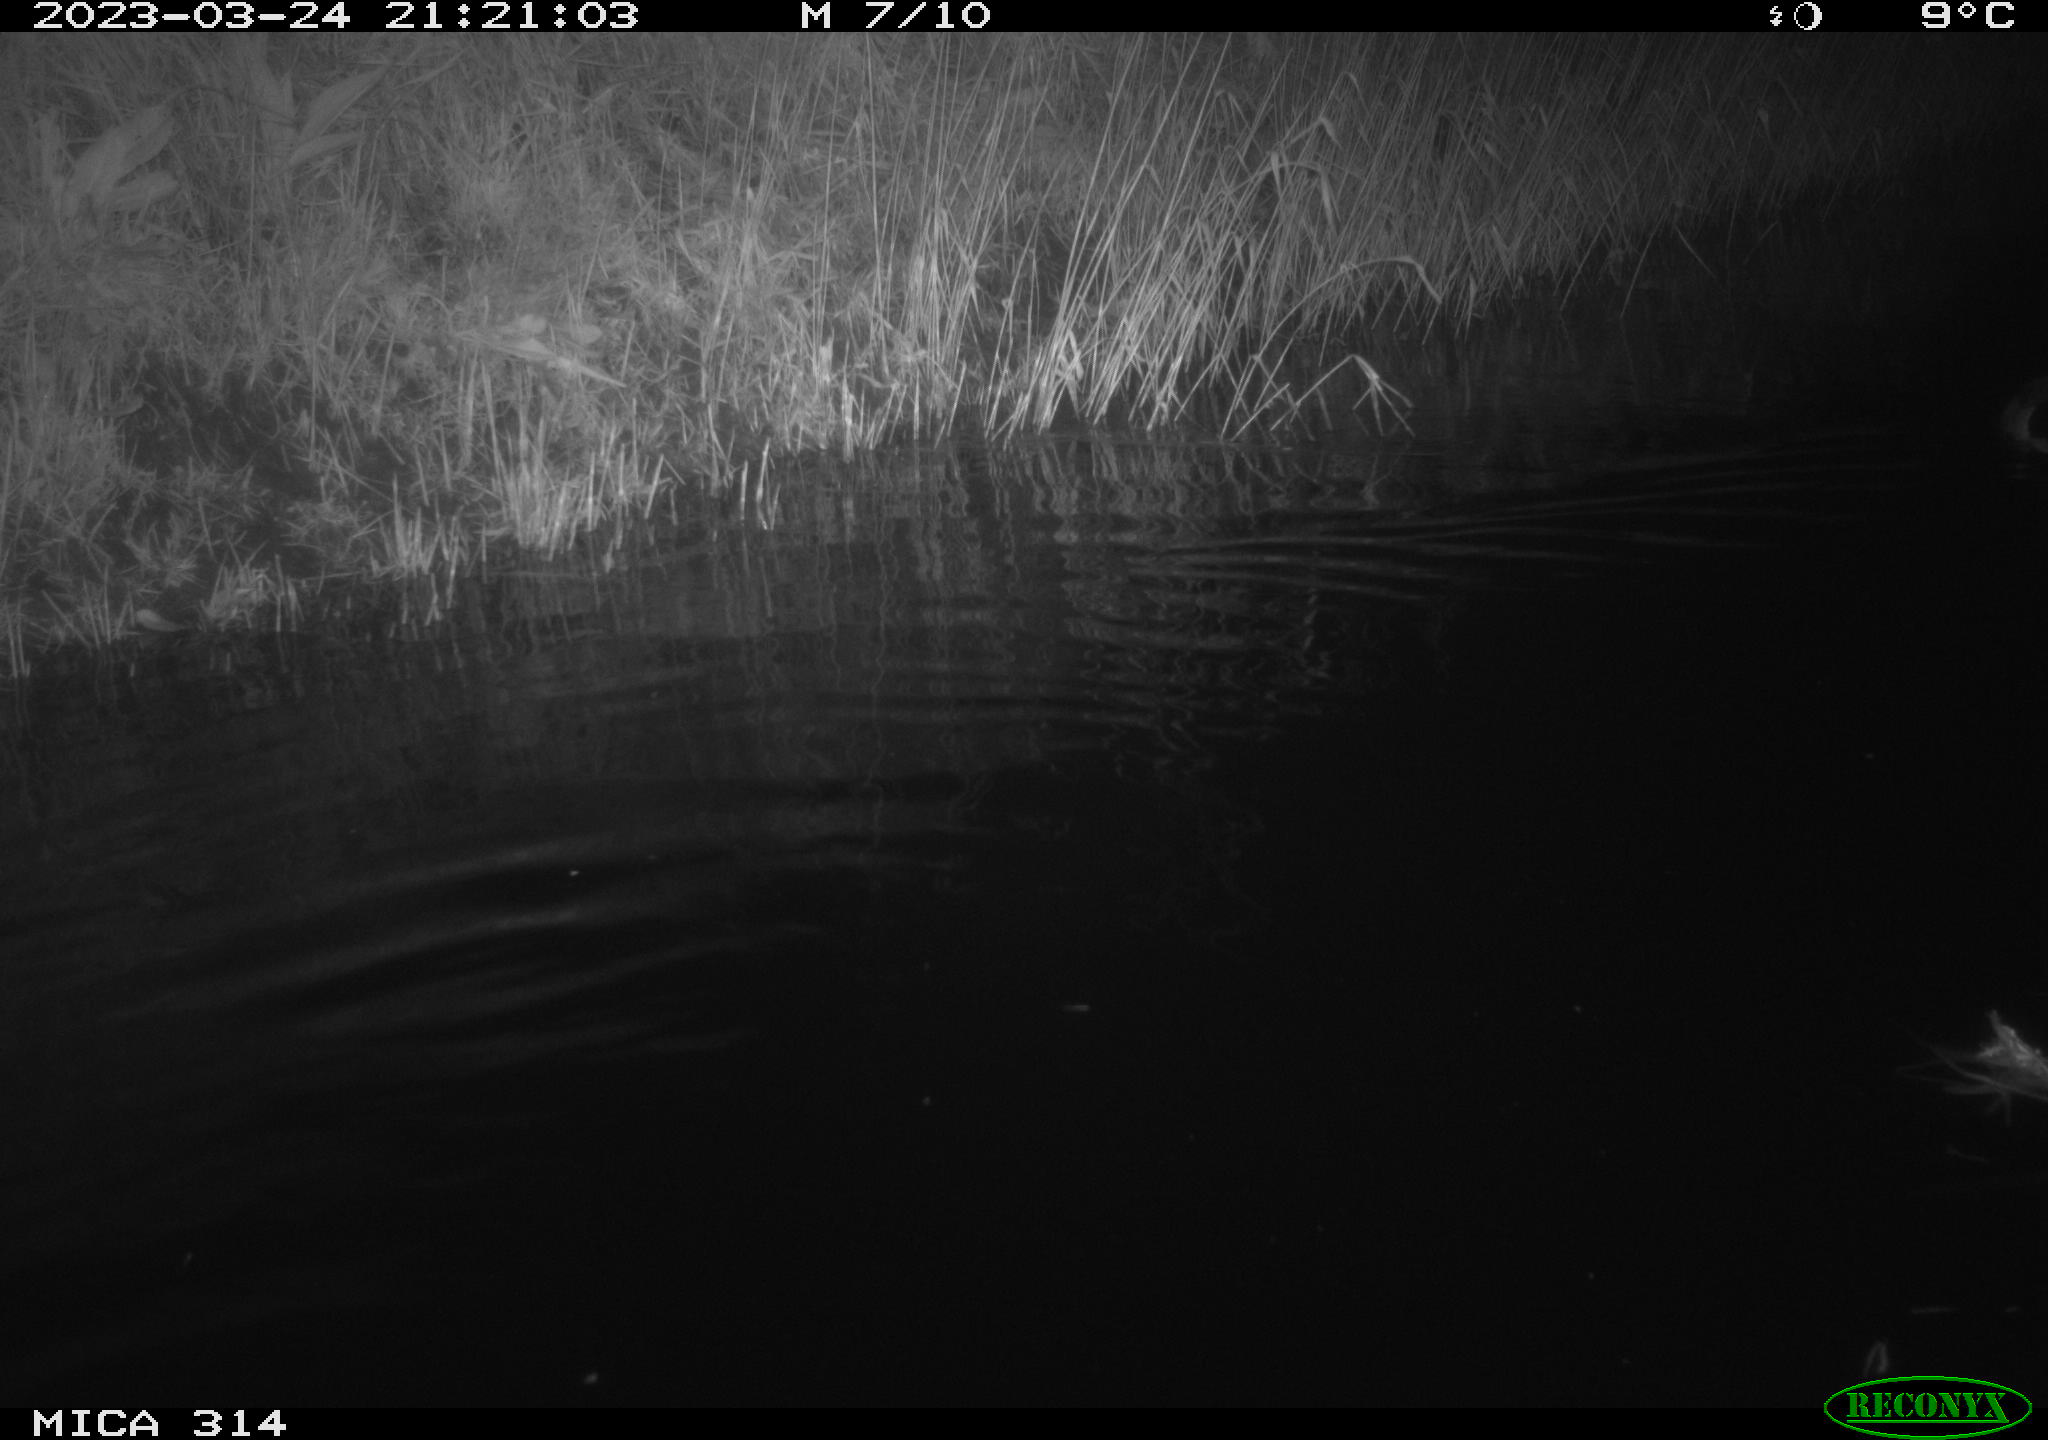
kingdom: Animalia
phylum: Chordata
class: Aves
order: Anseriformes
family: Anatidae
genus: Anas
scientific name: Anas
